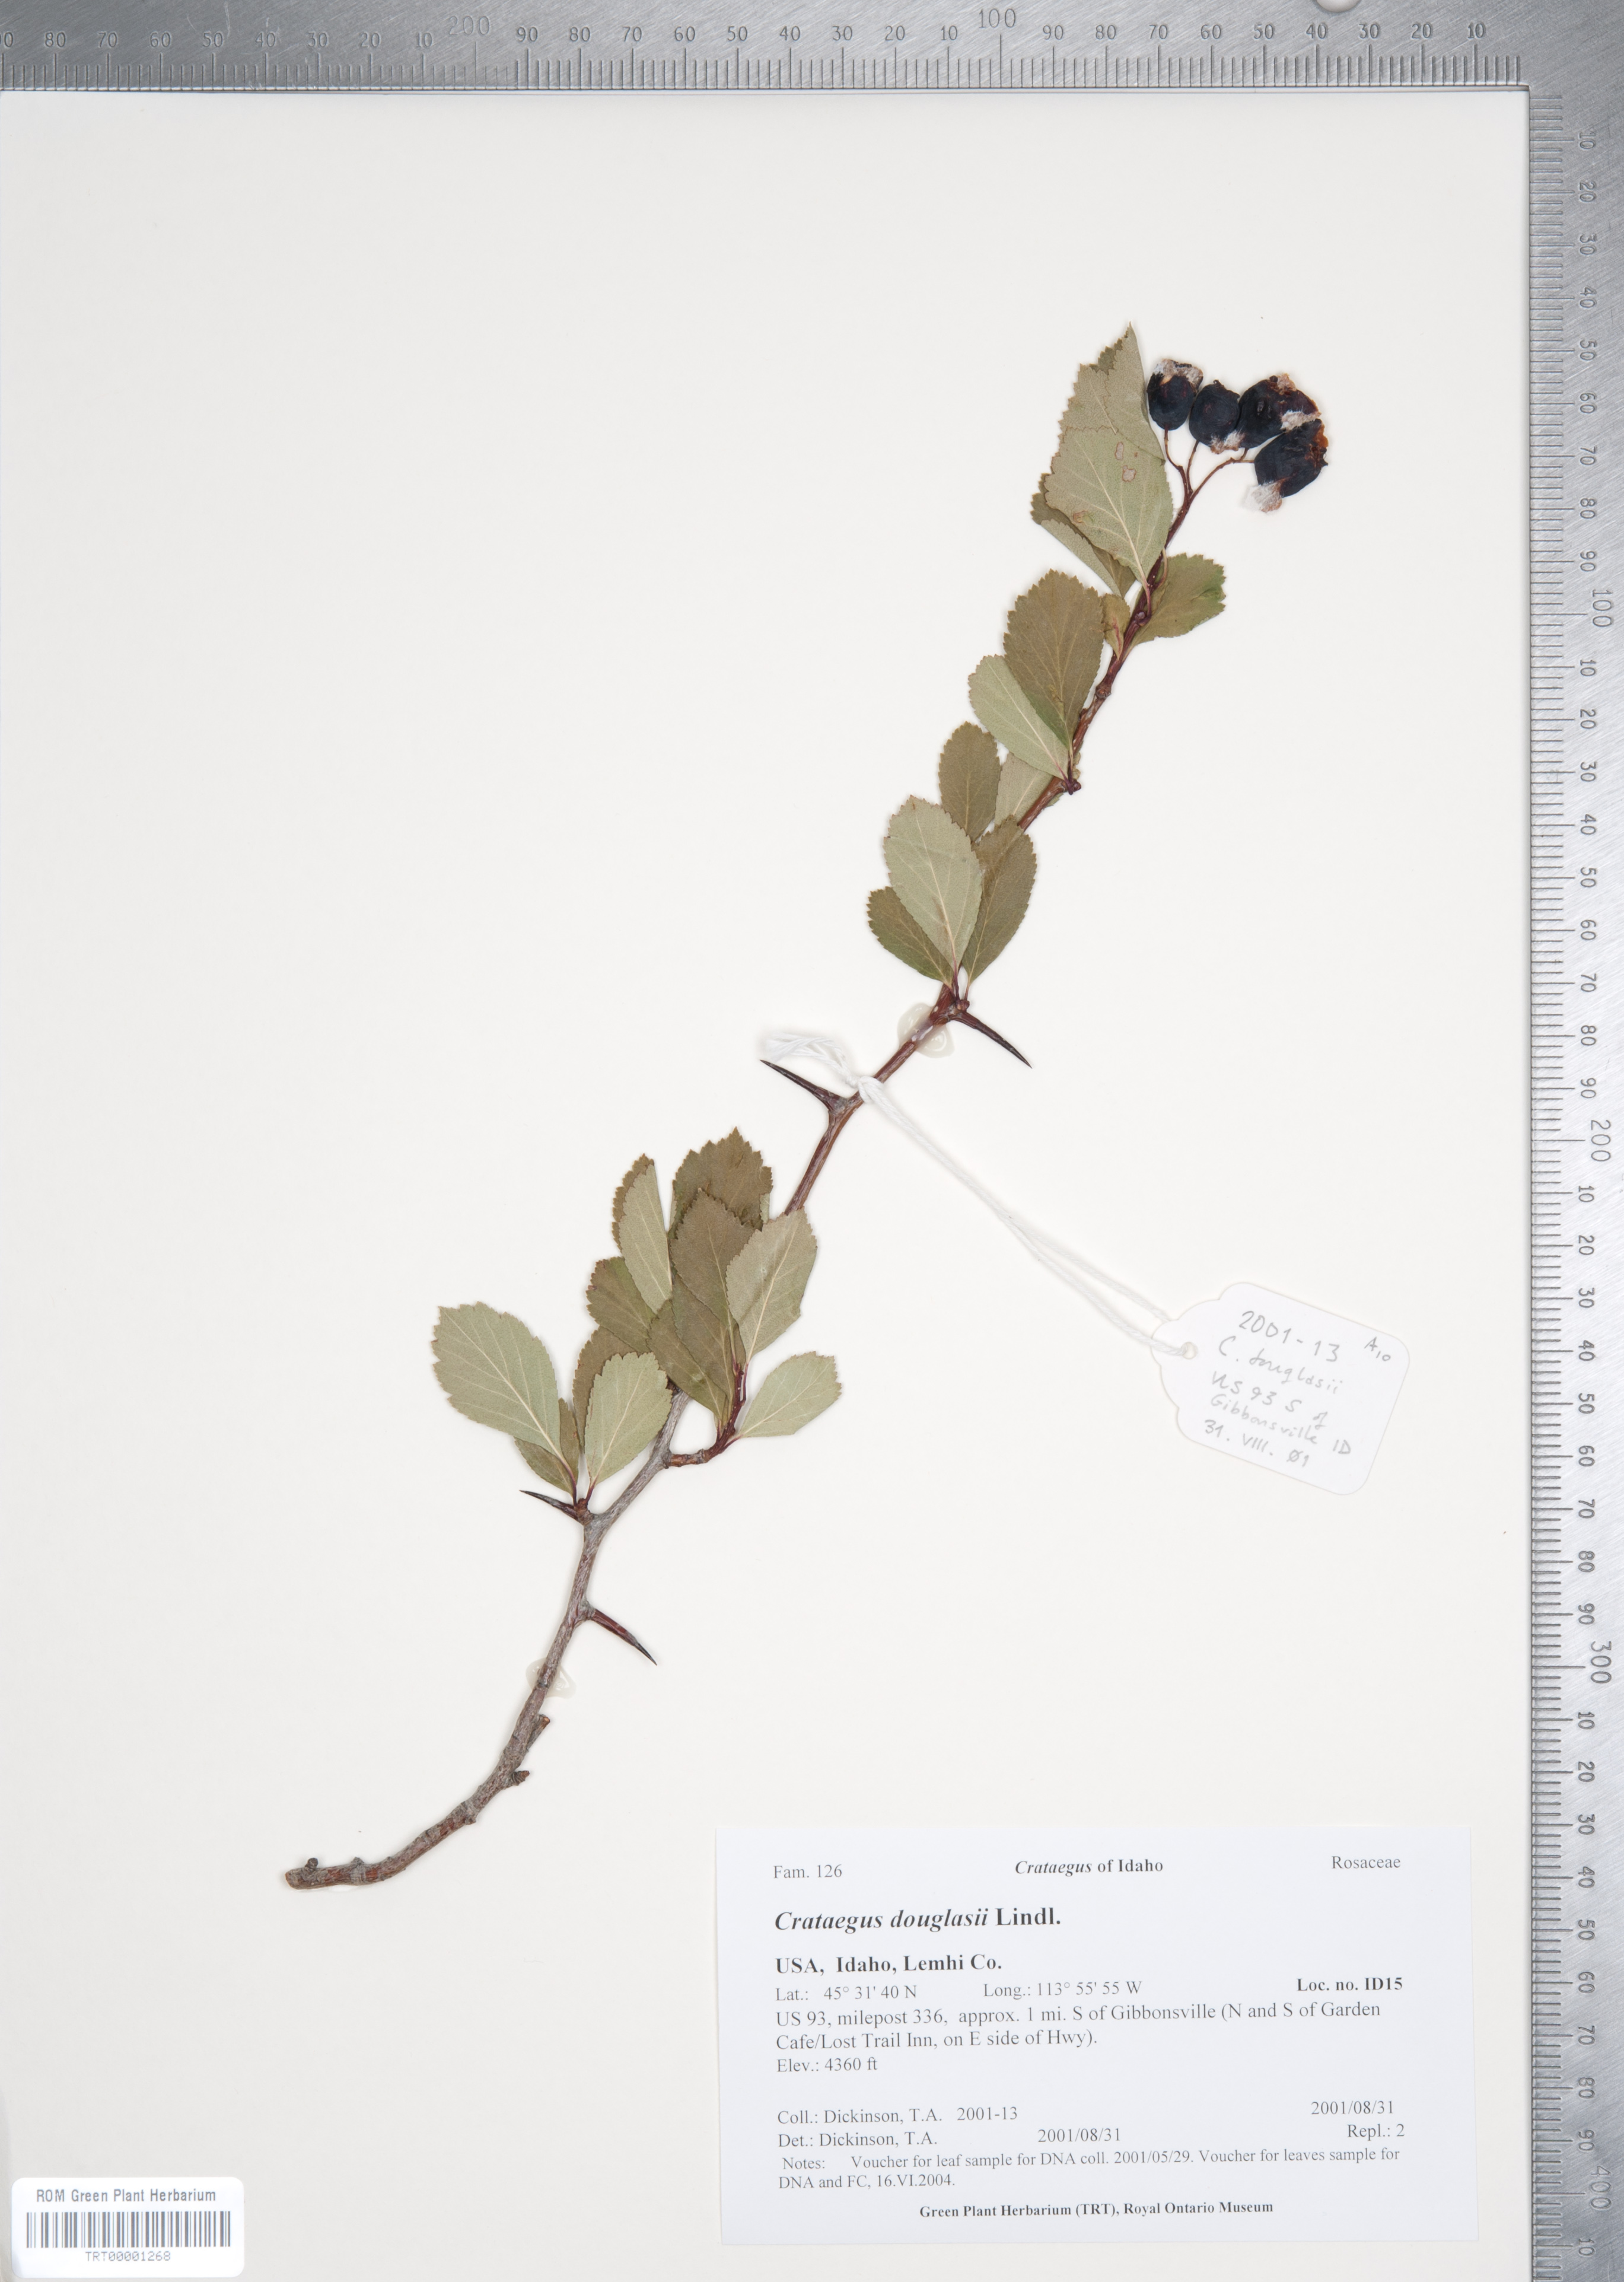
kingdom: Plantae
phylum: Tracheophyta
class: Magnoliopsida
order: Rosales
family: Rosaceae
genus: Crataegus
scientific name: Crataegus douglasii
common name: Black hawthorn
